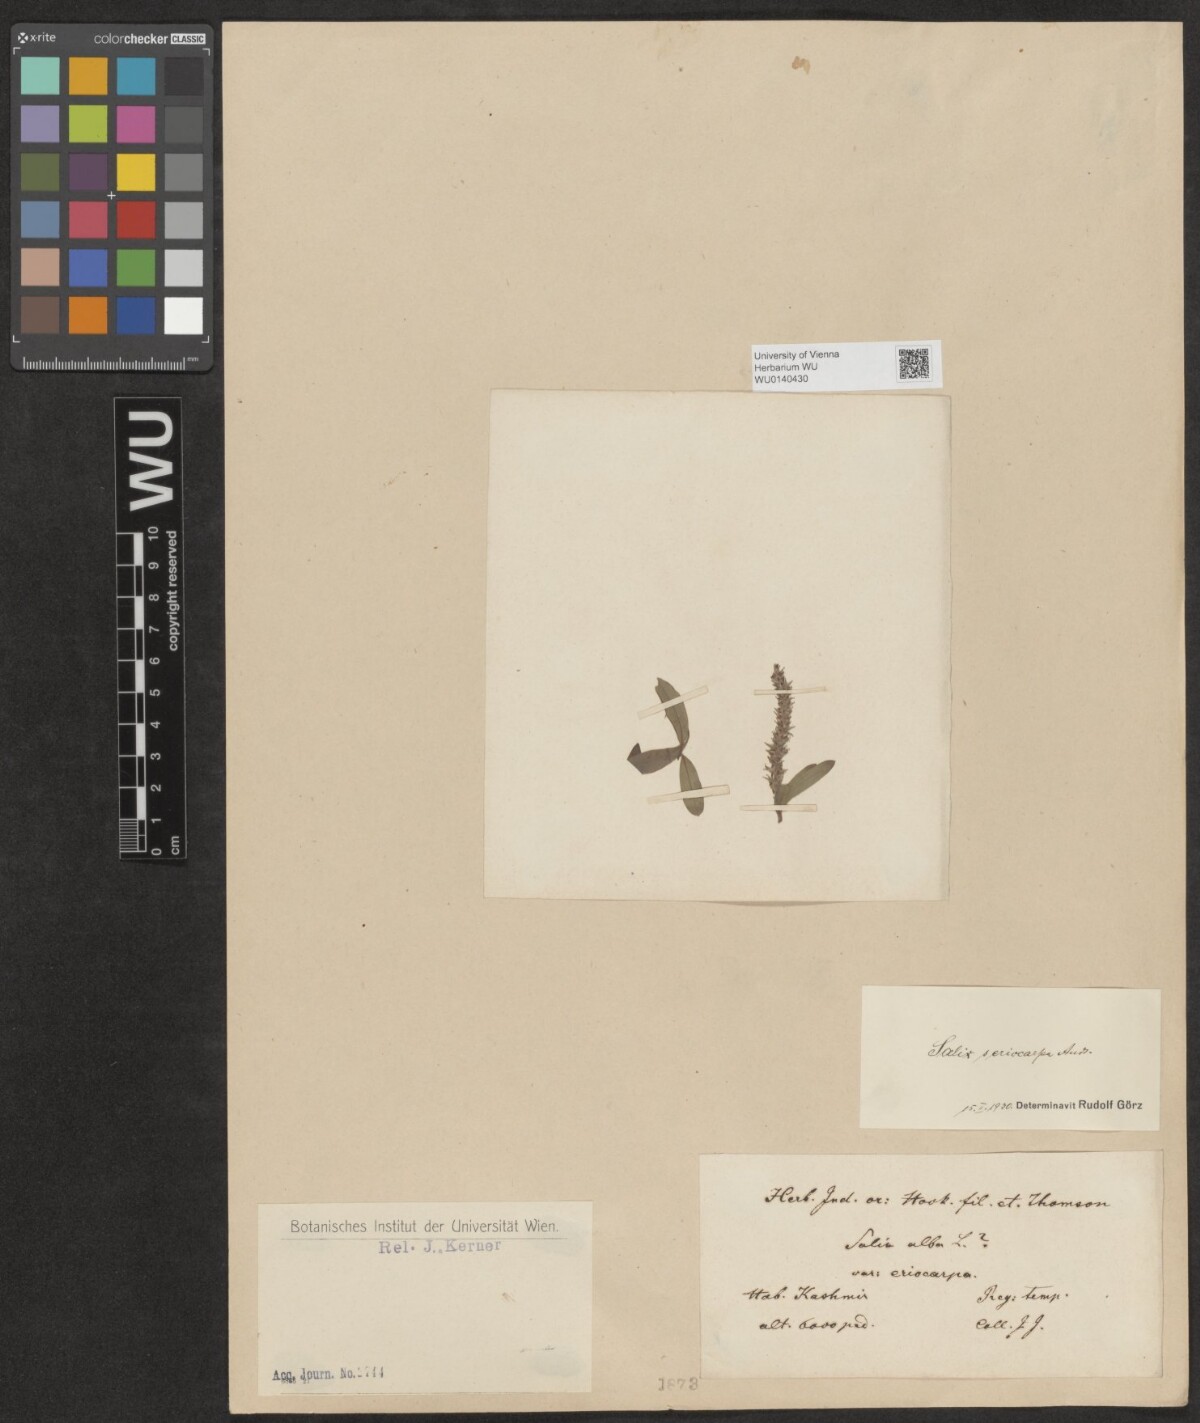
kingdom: Plantae
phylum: Tracheophyta
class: Magnoliopsida
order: Malpighiales
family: Salicaceae
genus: Salix
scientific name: Salix sericocarpa
